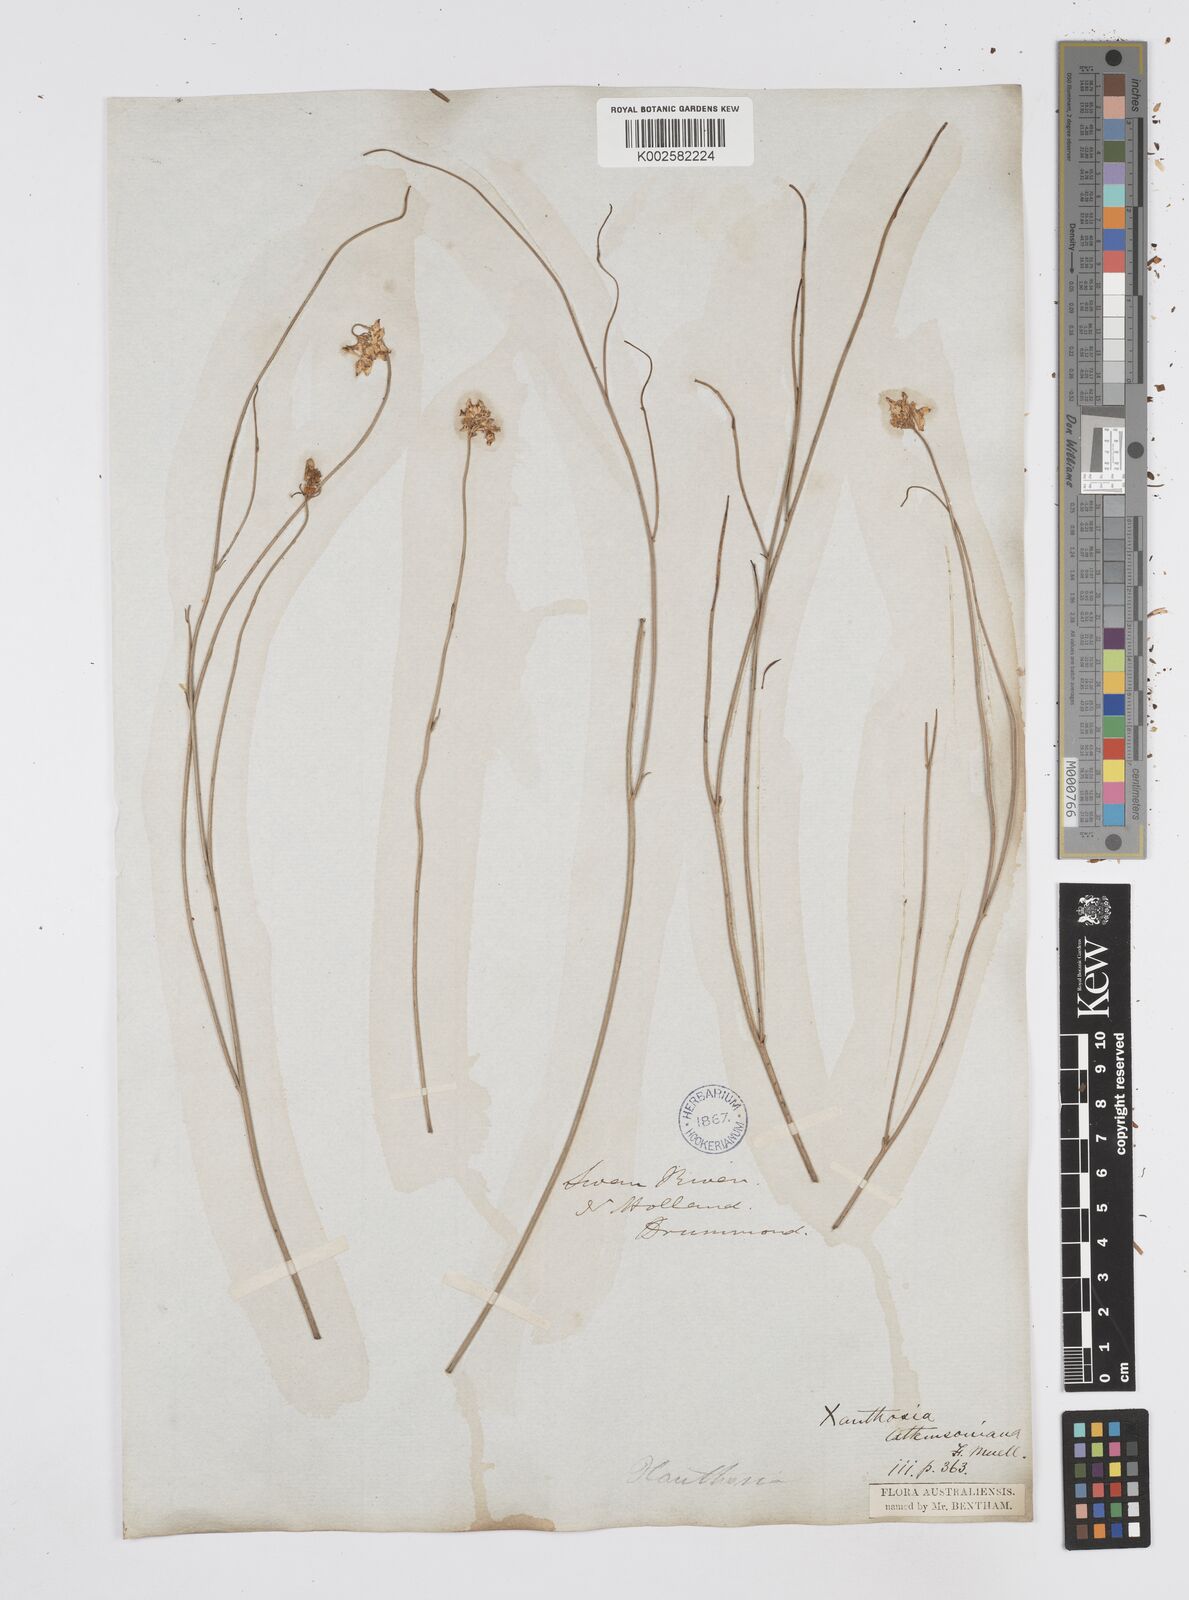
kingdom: Plantae
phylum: Tracheophyta
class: Magnoliopsida
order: Apiales
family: Apiaceae
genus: Xanthosia
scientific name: Xanthosia atkinsoniana
